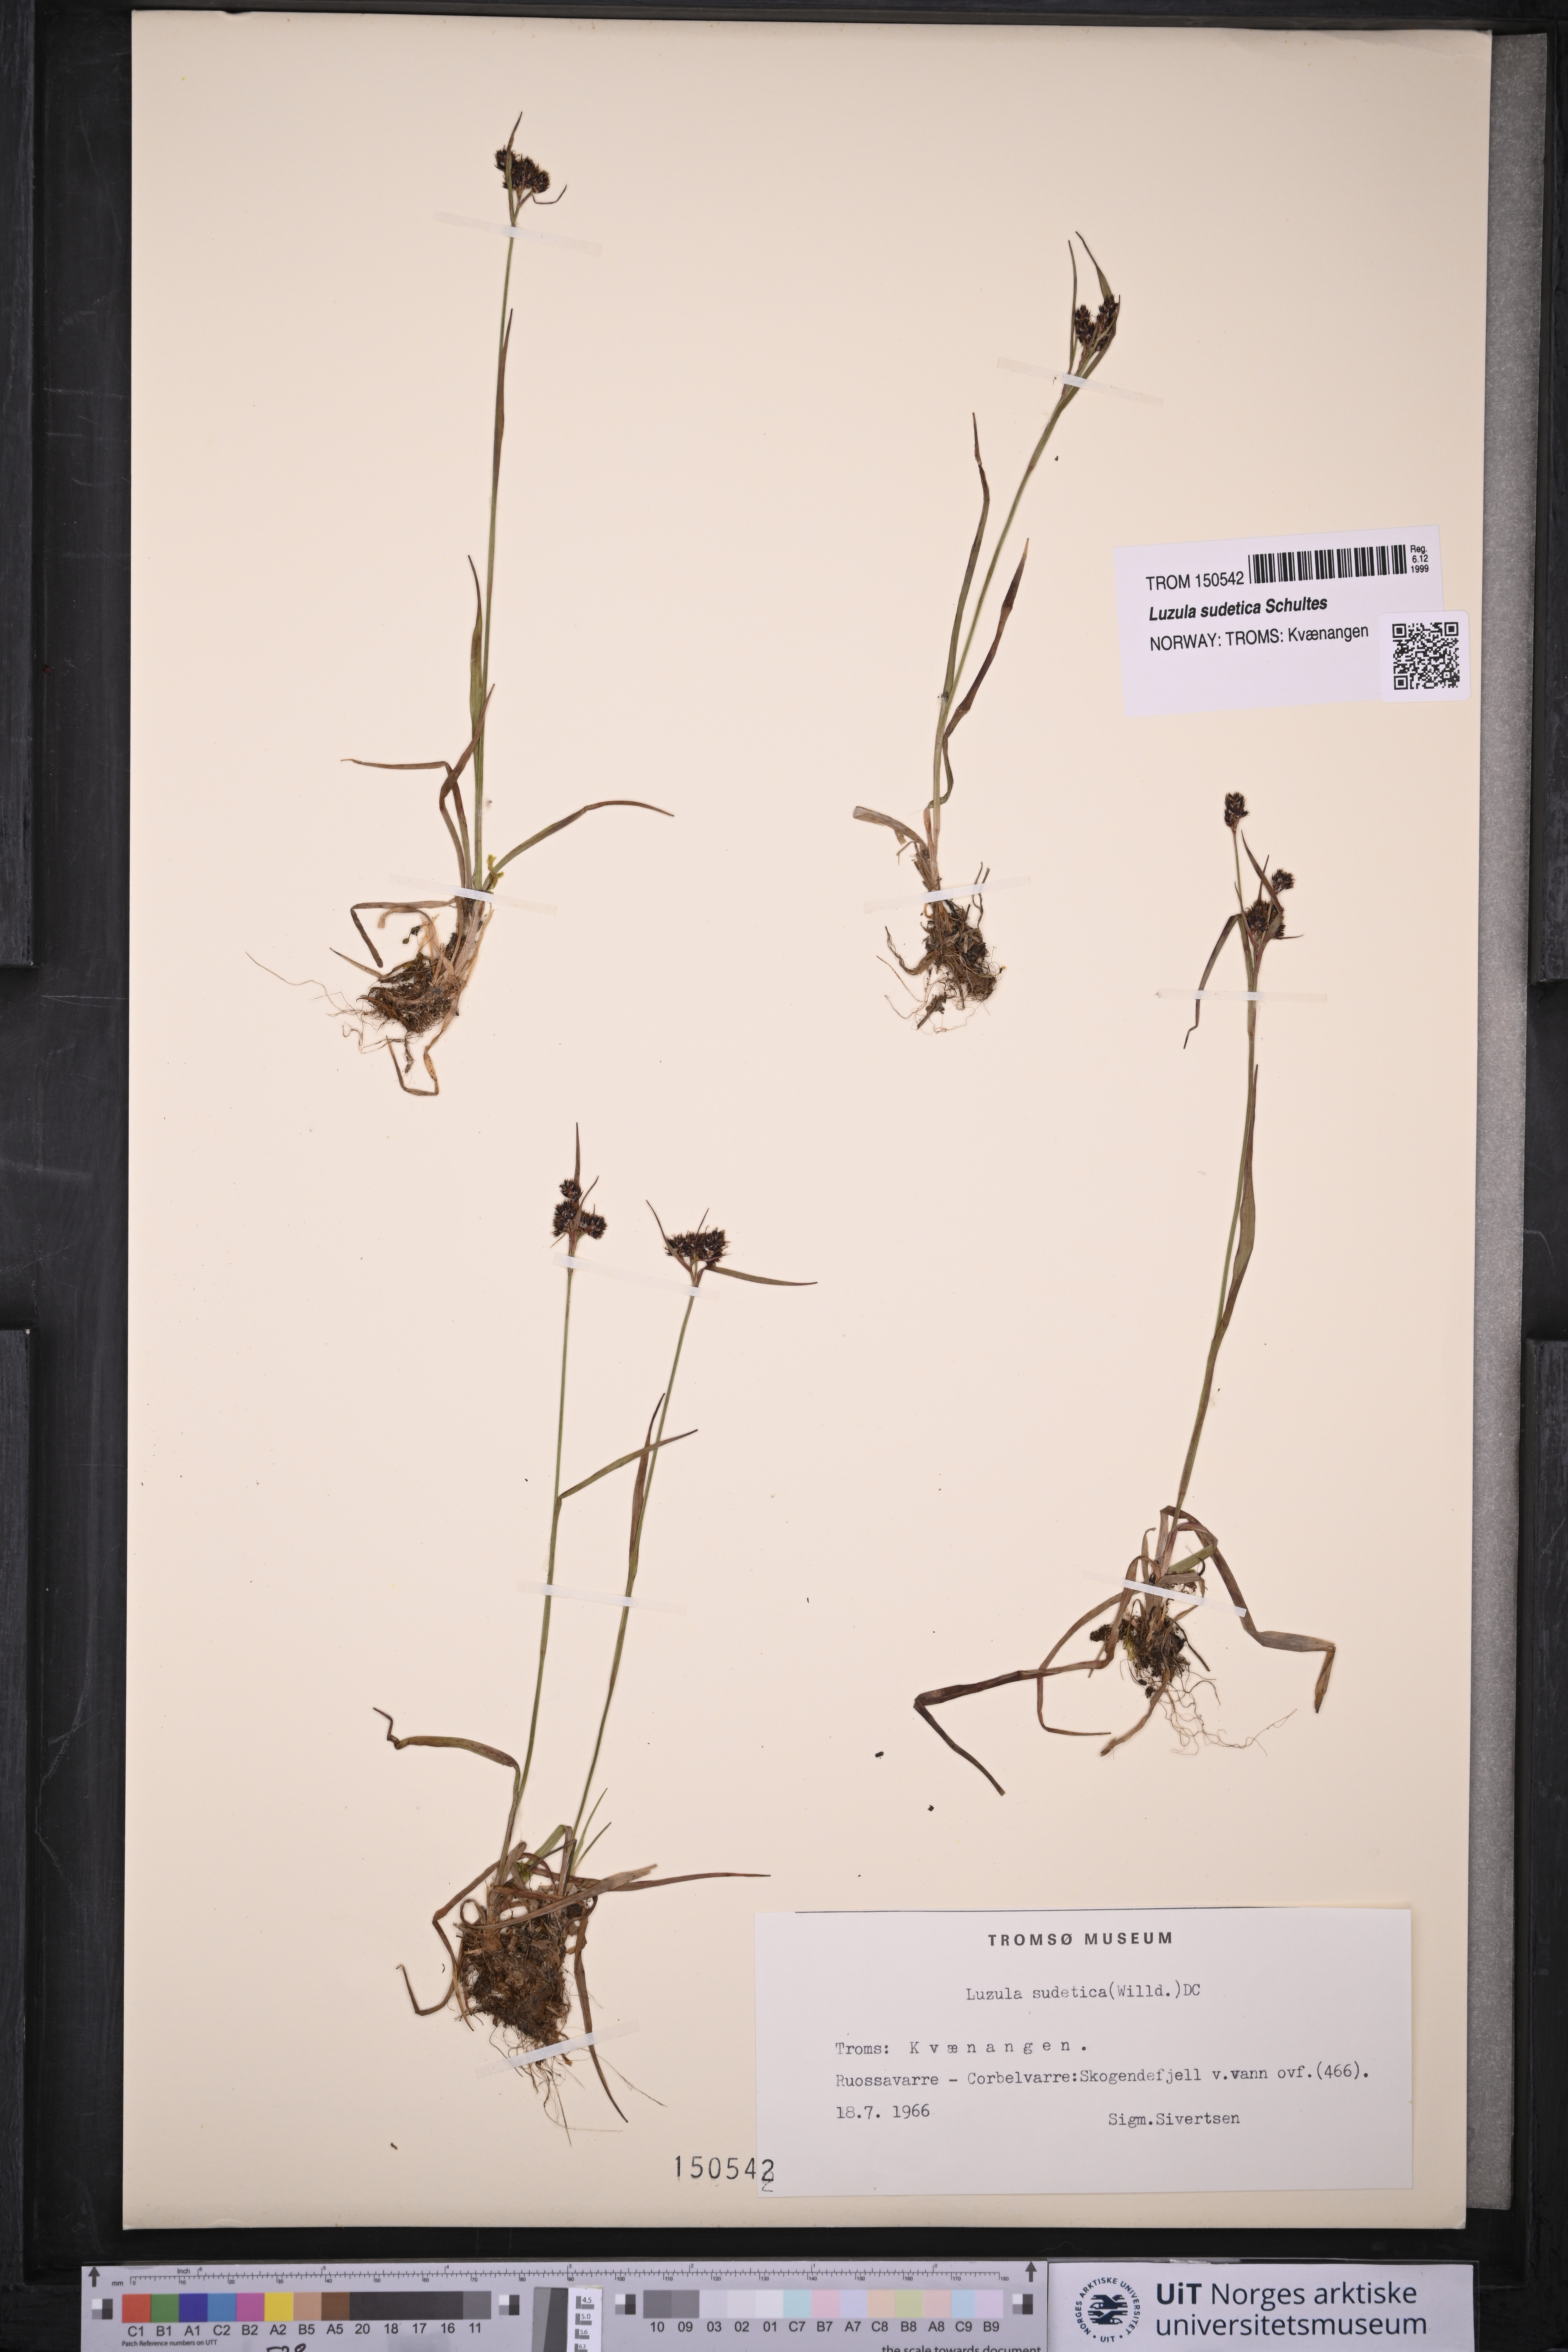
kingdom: Plantae
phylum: Tracheophyta
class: Liliopsida
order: Poales
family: Juncaceae
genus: Luzula
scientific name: Luzula sudetica
